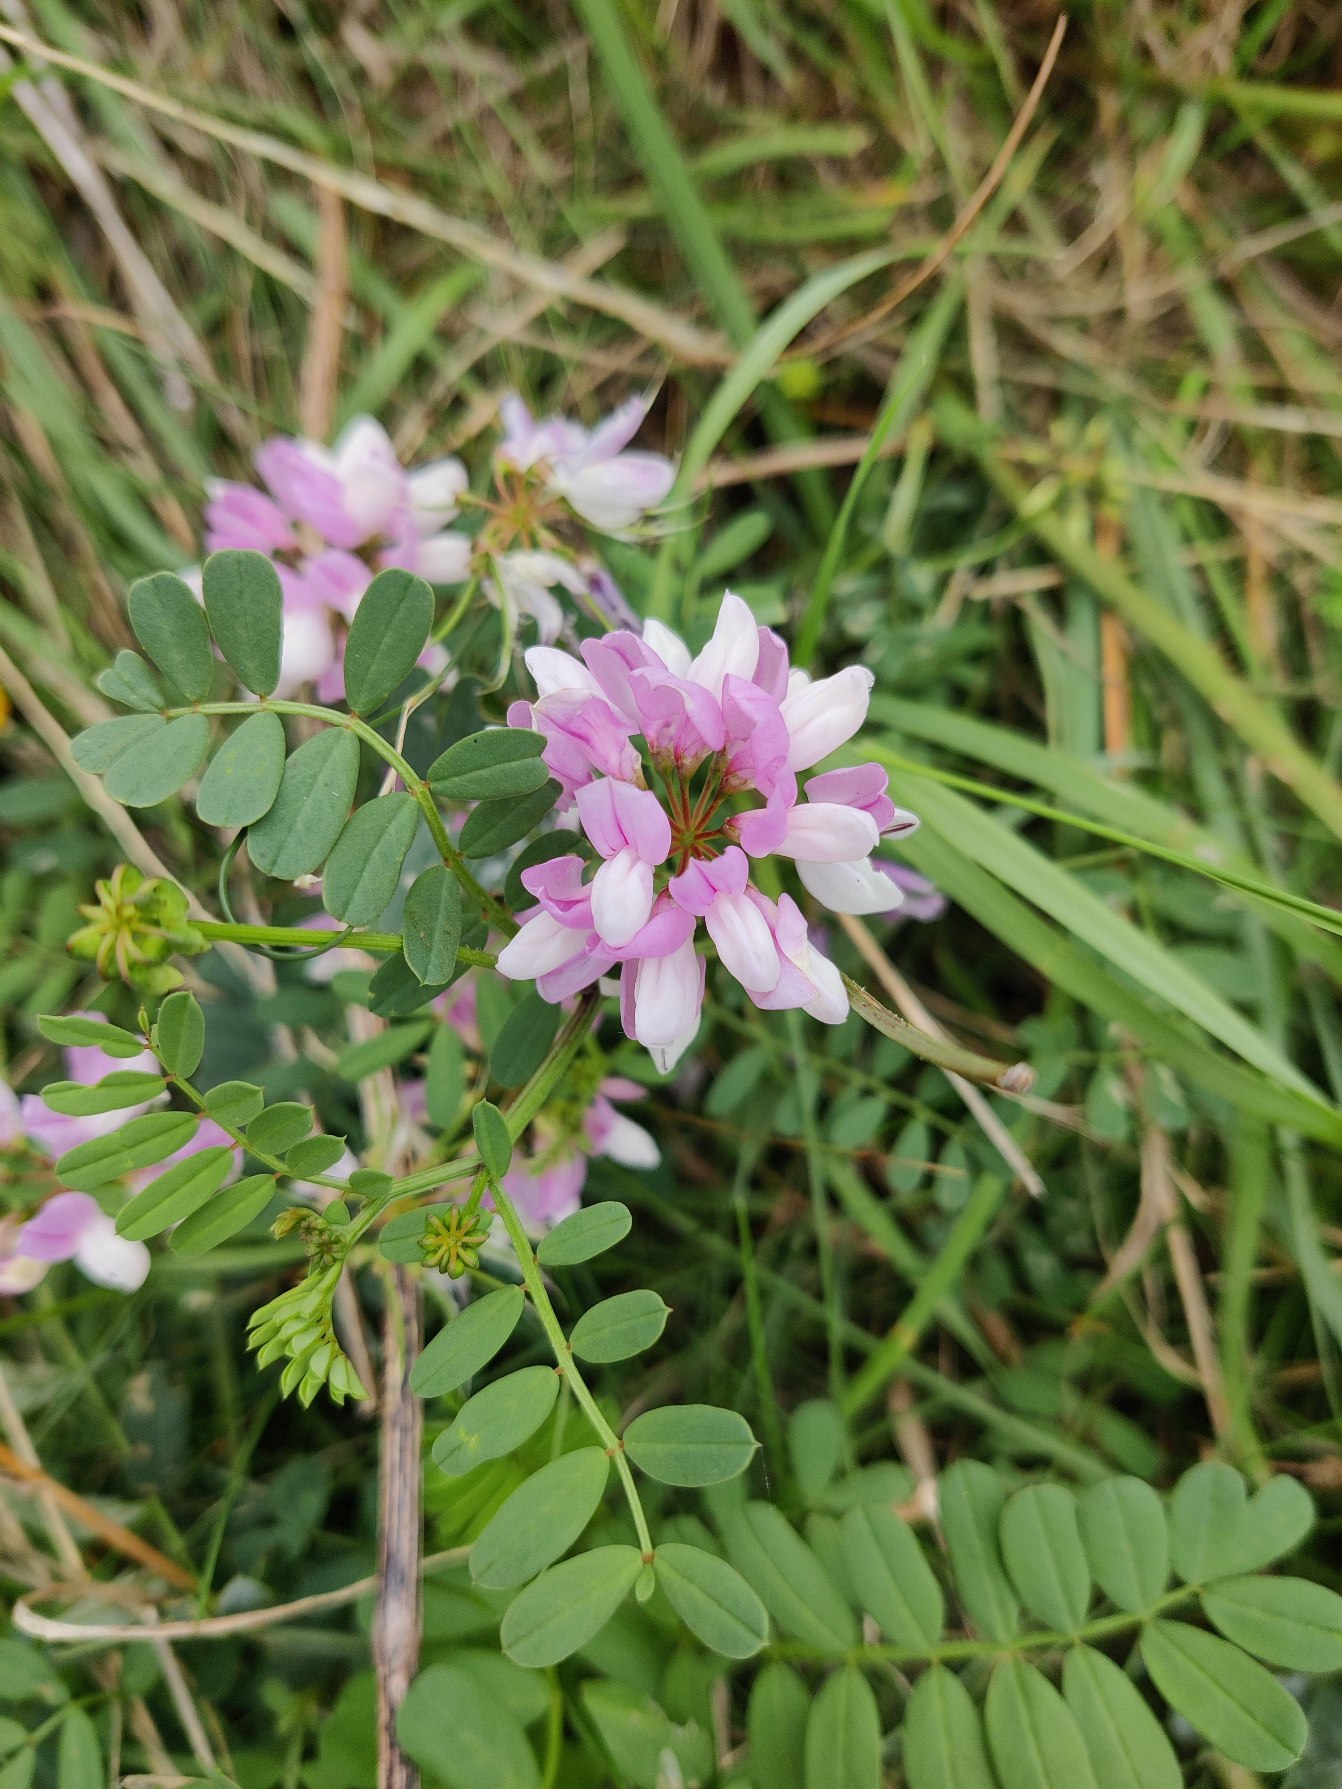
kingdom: Plantae
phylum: Tracheophyta
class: Magnoliopsida
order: Fabales
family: Fabaceae
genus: Coronilla
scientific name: Coronilla varia
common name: Giftig kronvikke
